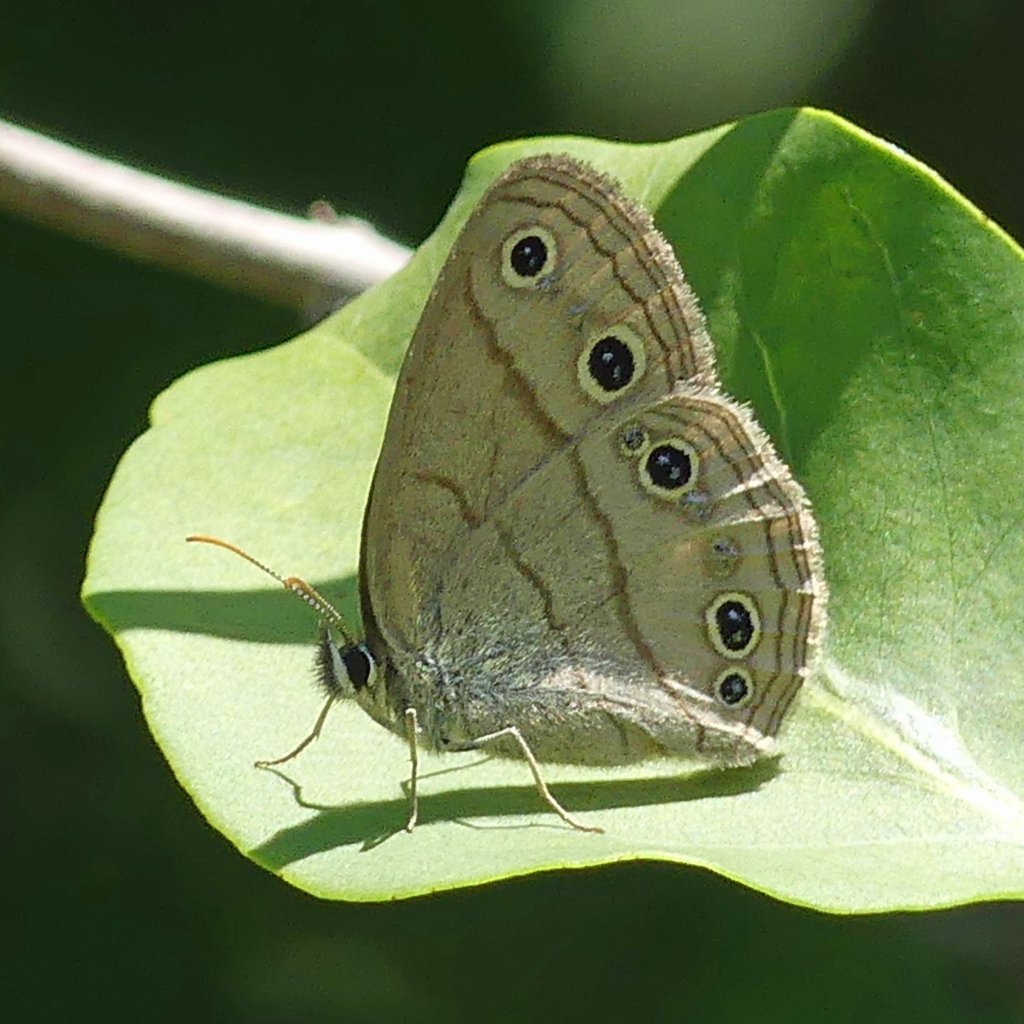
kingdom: Animalia
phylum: Arthropoda
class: Insecta
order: Lepidoptera
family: Nymphalidae
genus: Euptychia
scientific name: Euptychia cymela
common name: Little Wood Satyr
